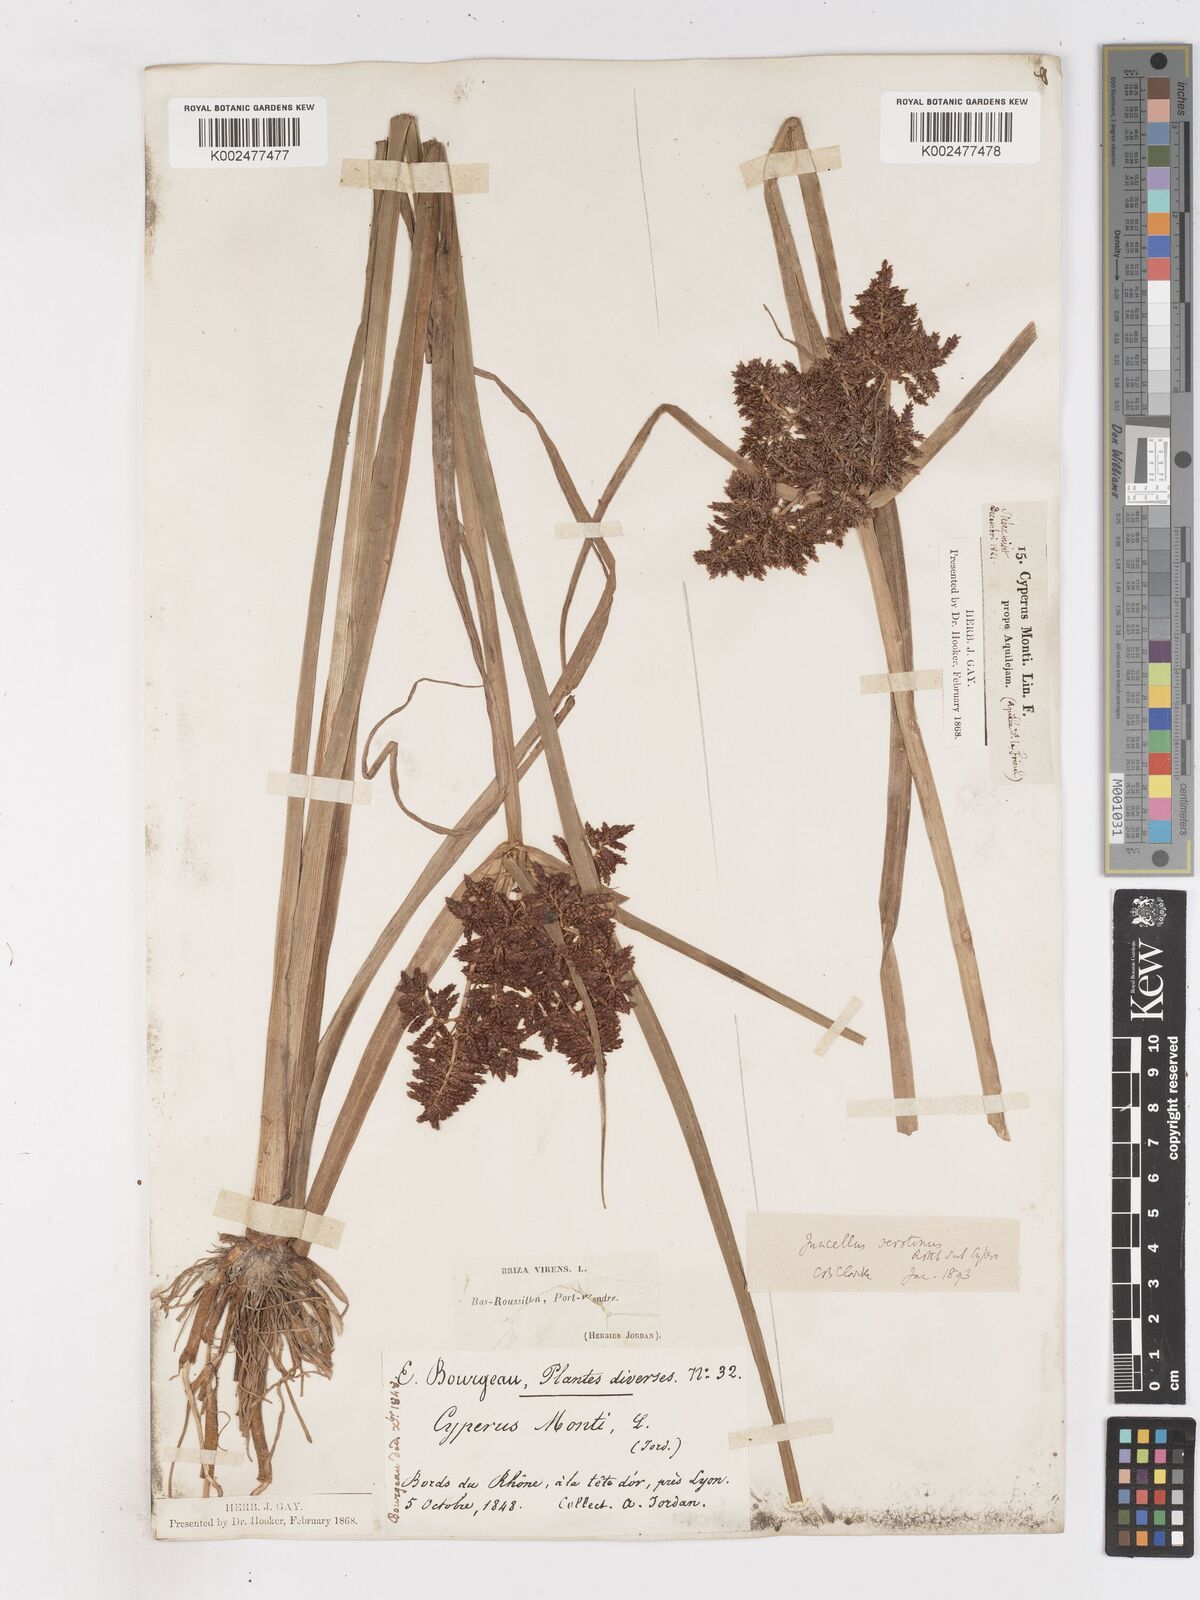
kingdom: Plantae
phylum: Tracheophyta
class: Liliopsida
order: Poales
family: Cyperaceae
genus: Cyperus
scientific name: Cyperus serotinus
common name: Tidalmarsh flatsedge
